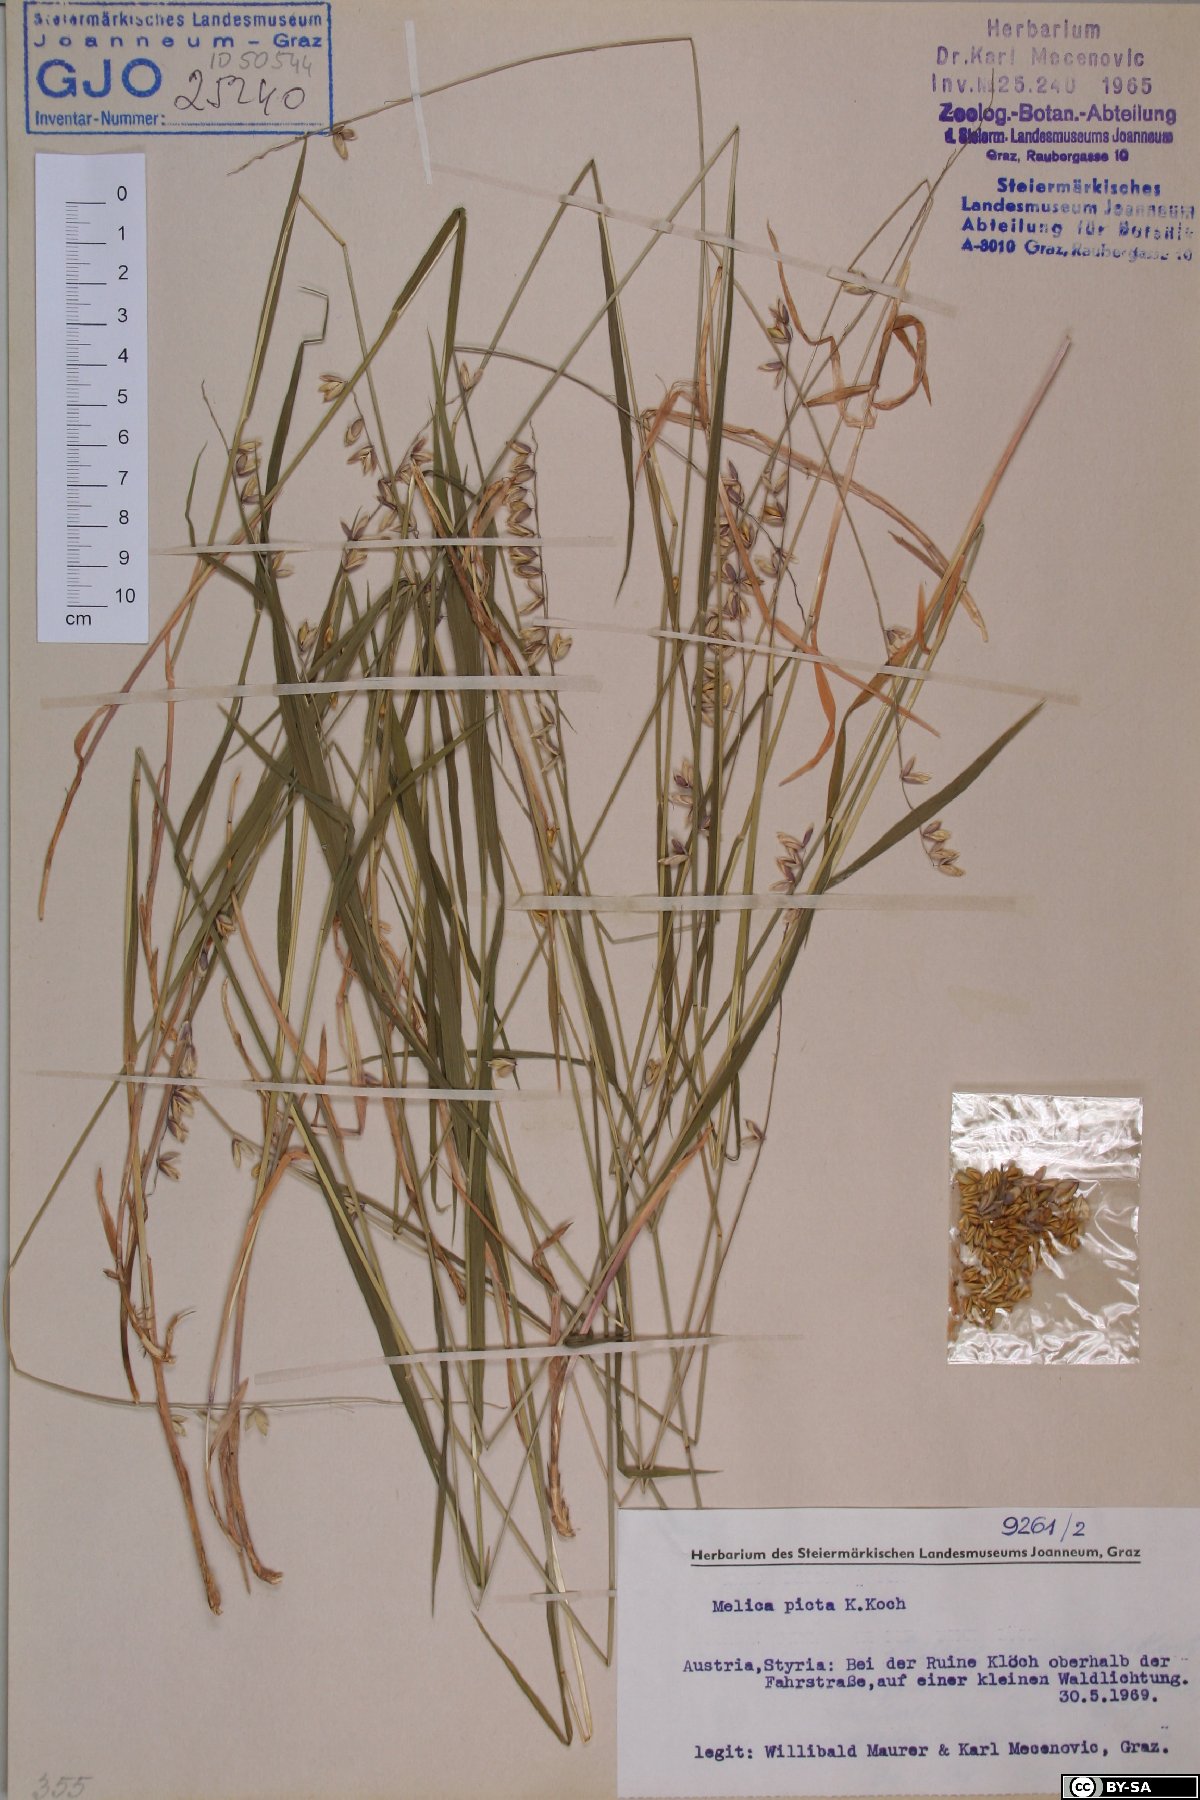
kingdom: Plantae
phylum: Tracheophyta
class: Liliopsida
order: Poales
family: Poaceae
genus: Melica
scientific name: Melica picta
